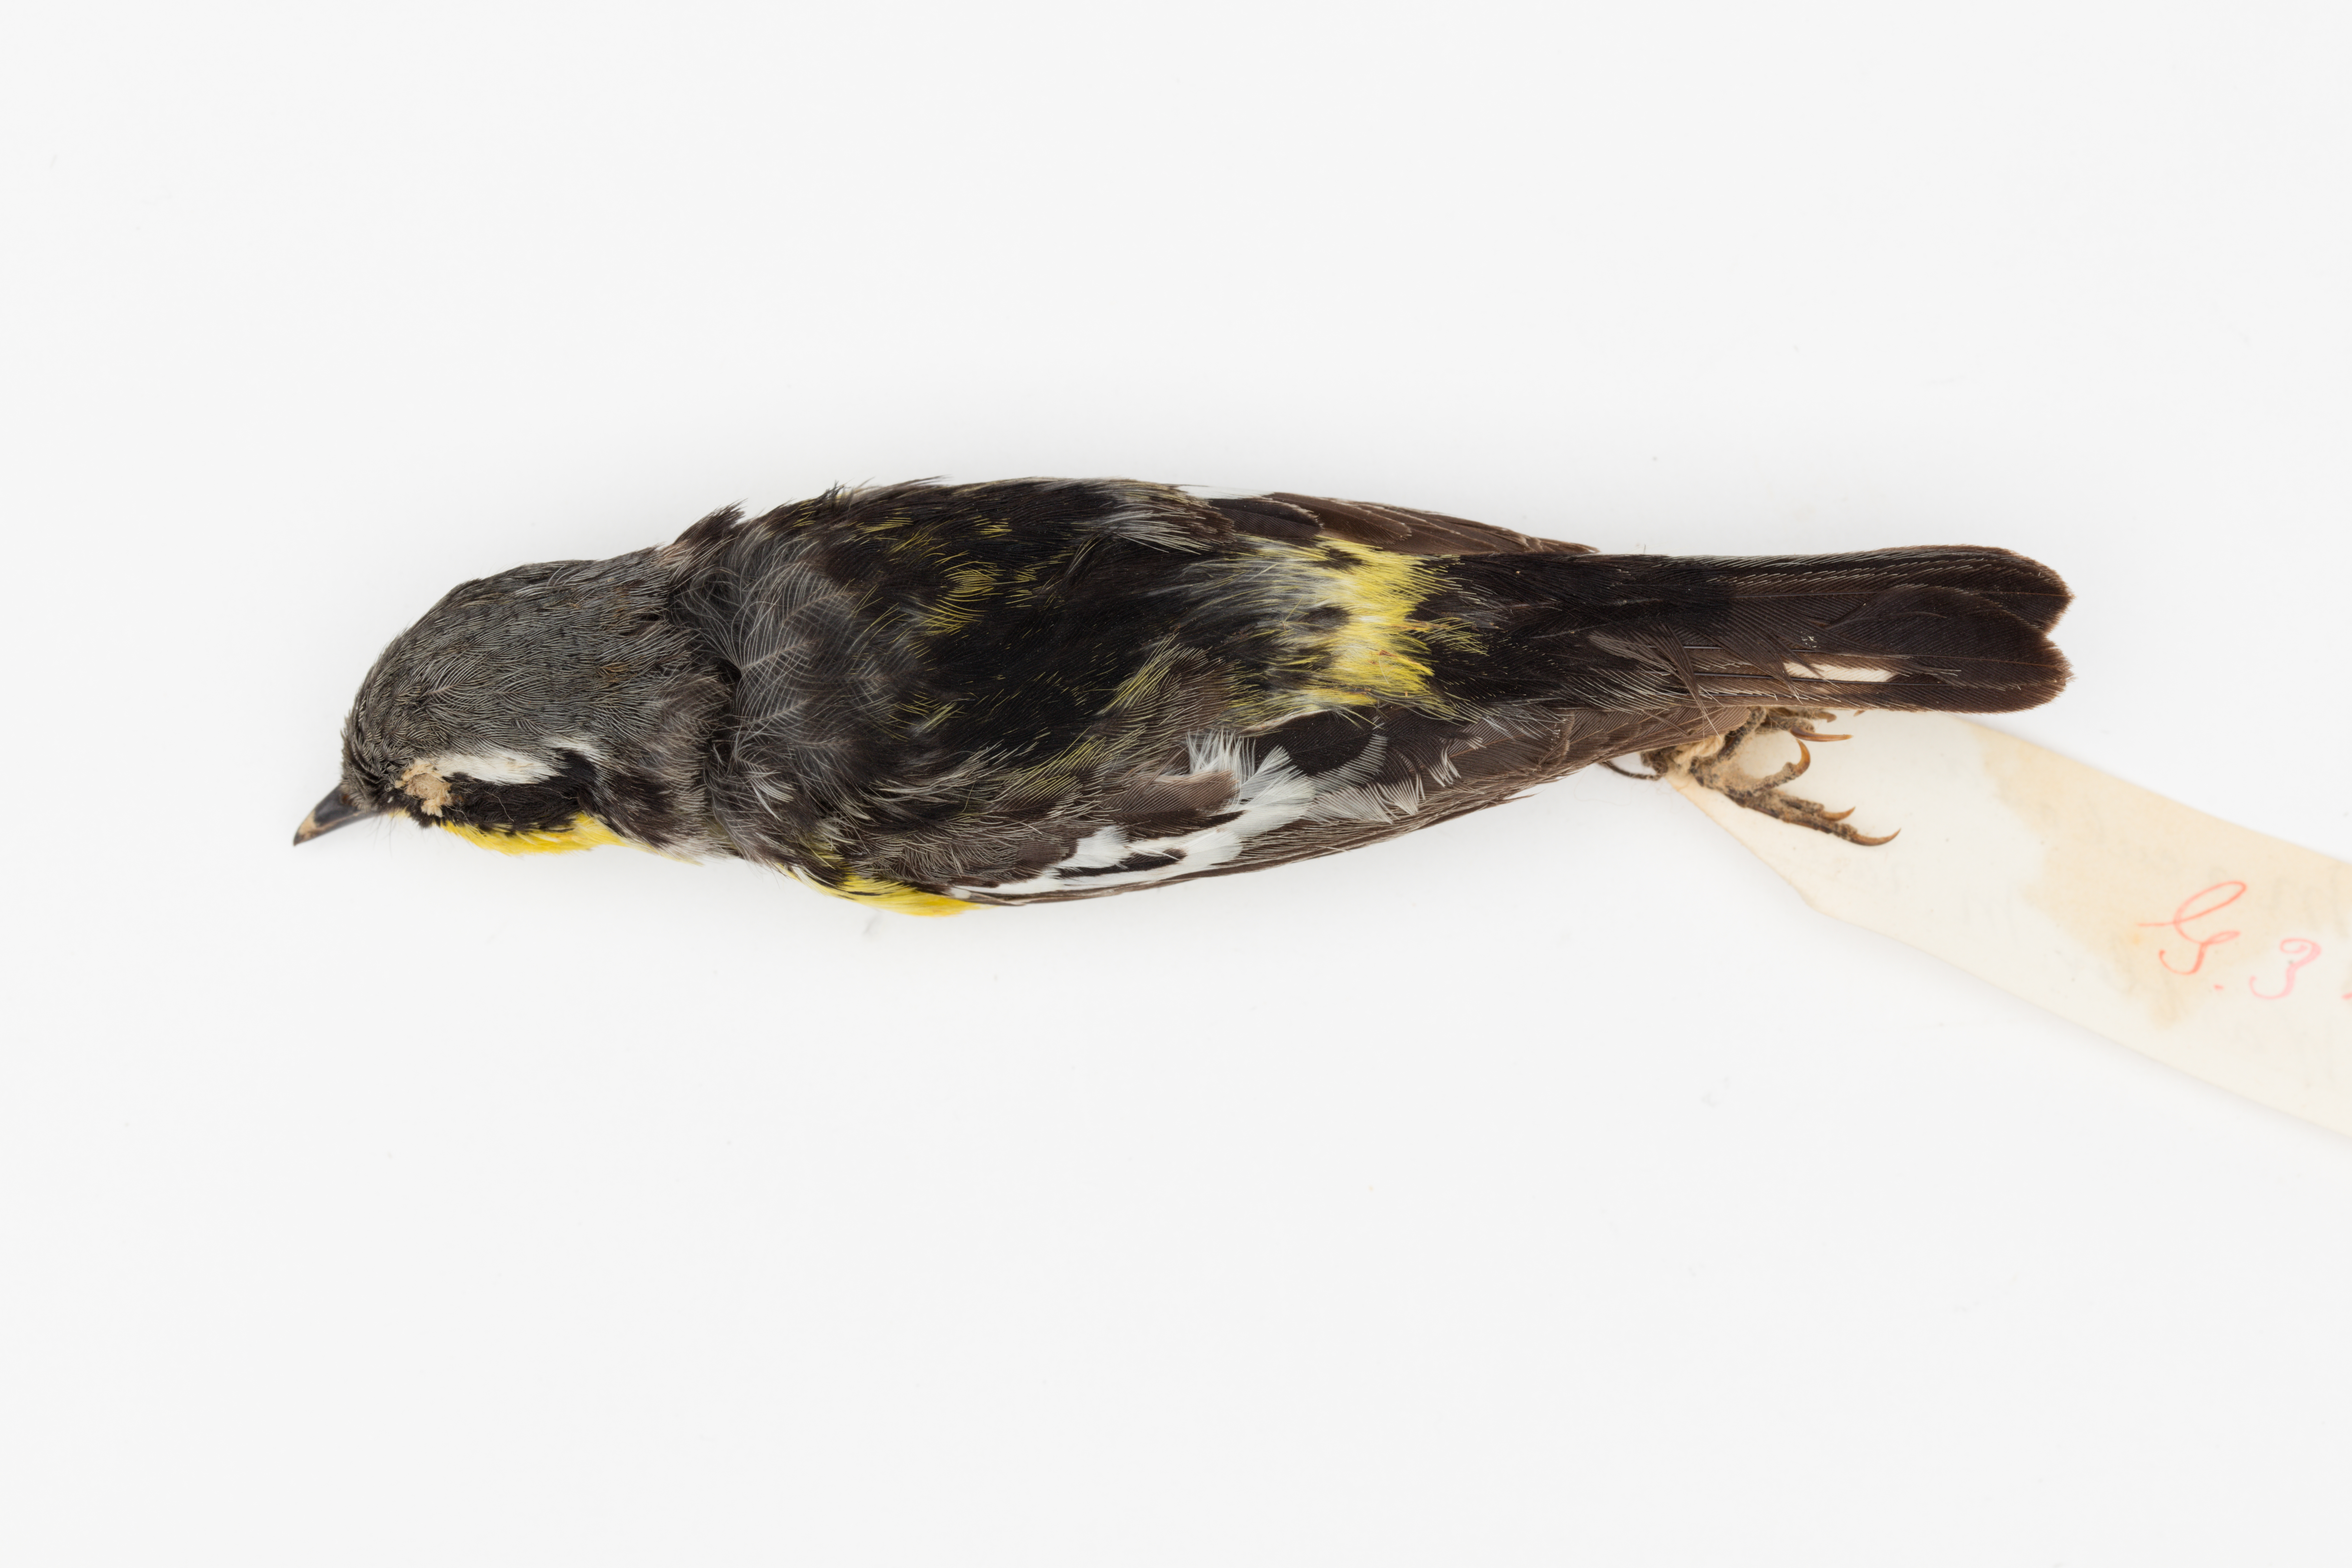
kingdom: Animalia
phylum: Chordata
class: Aves
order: Passeriformes
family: Parulidae
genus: Setophaga
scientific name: Setophaga magnolia
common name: Magnolia warbler
